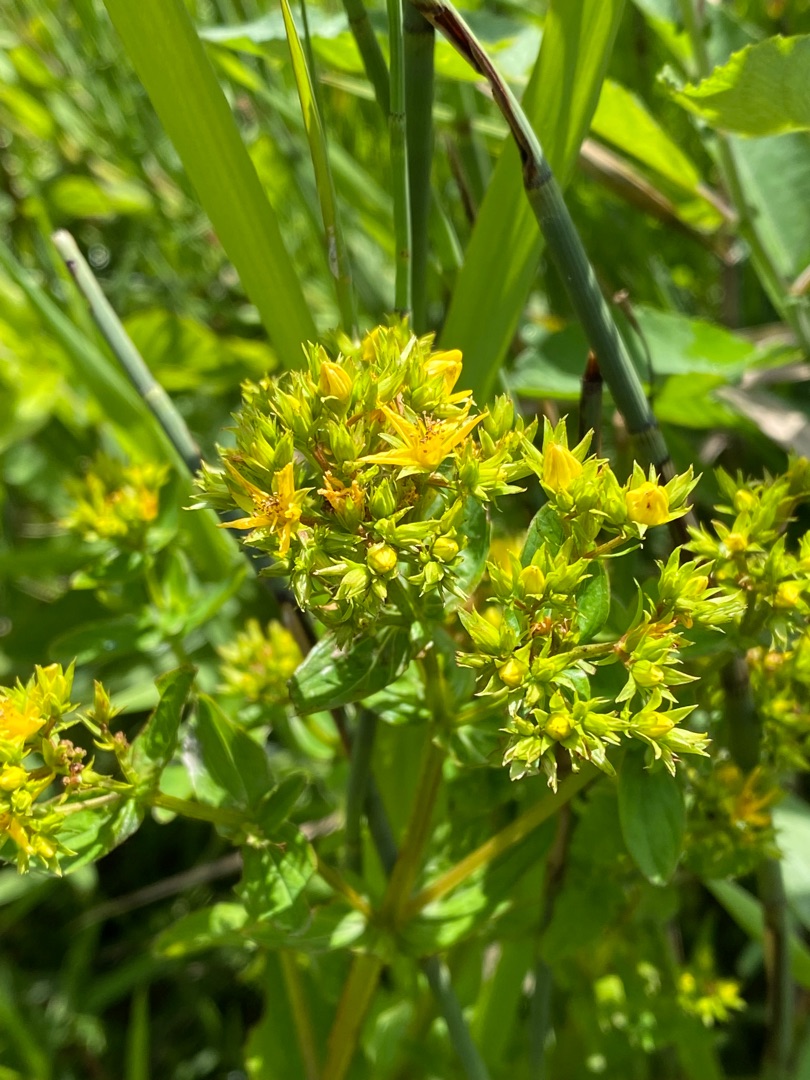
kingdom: Plantae
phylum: Tracheophyta
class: Magnoliopsida
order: Malpighiales
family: Hypericaceae
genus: Hypericum
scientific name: Hypericum tetrapterum
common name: Vinget perikon
